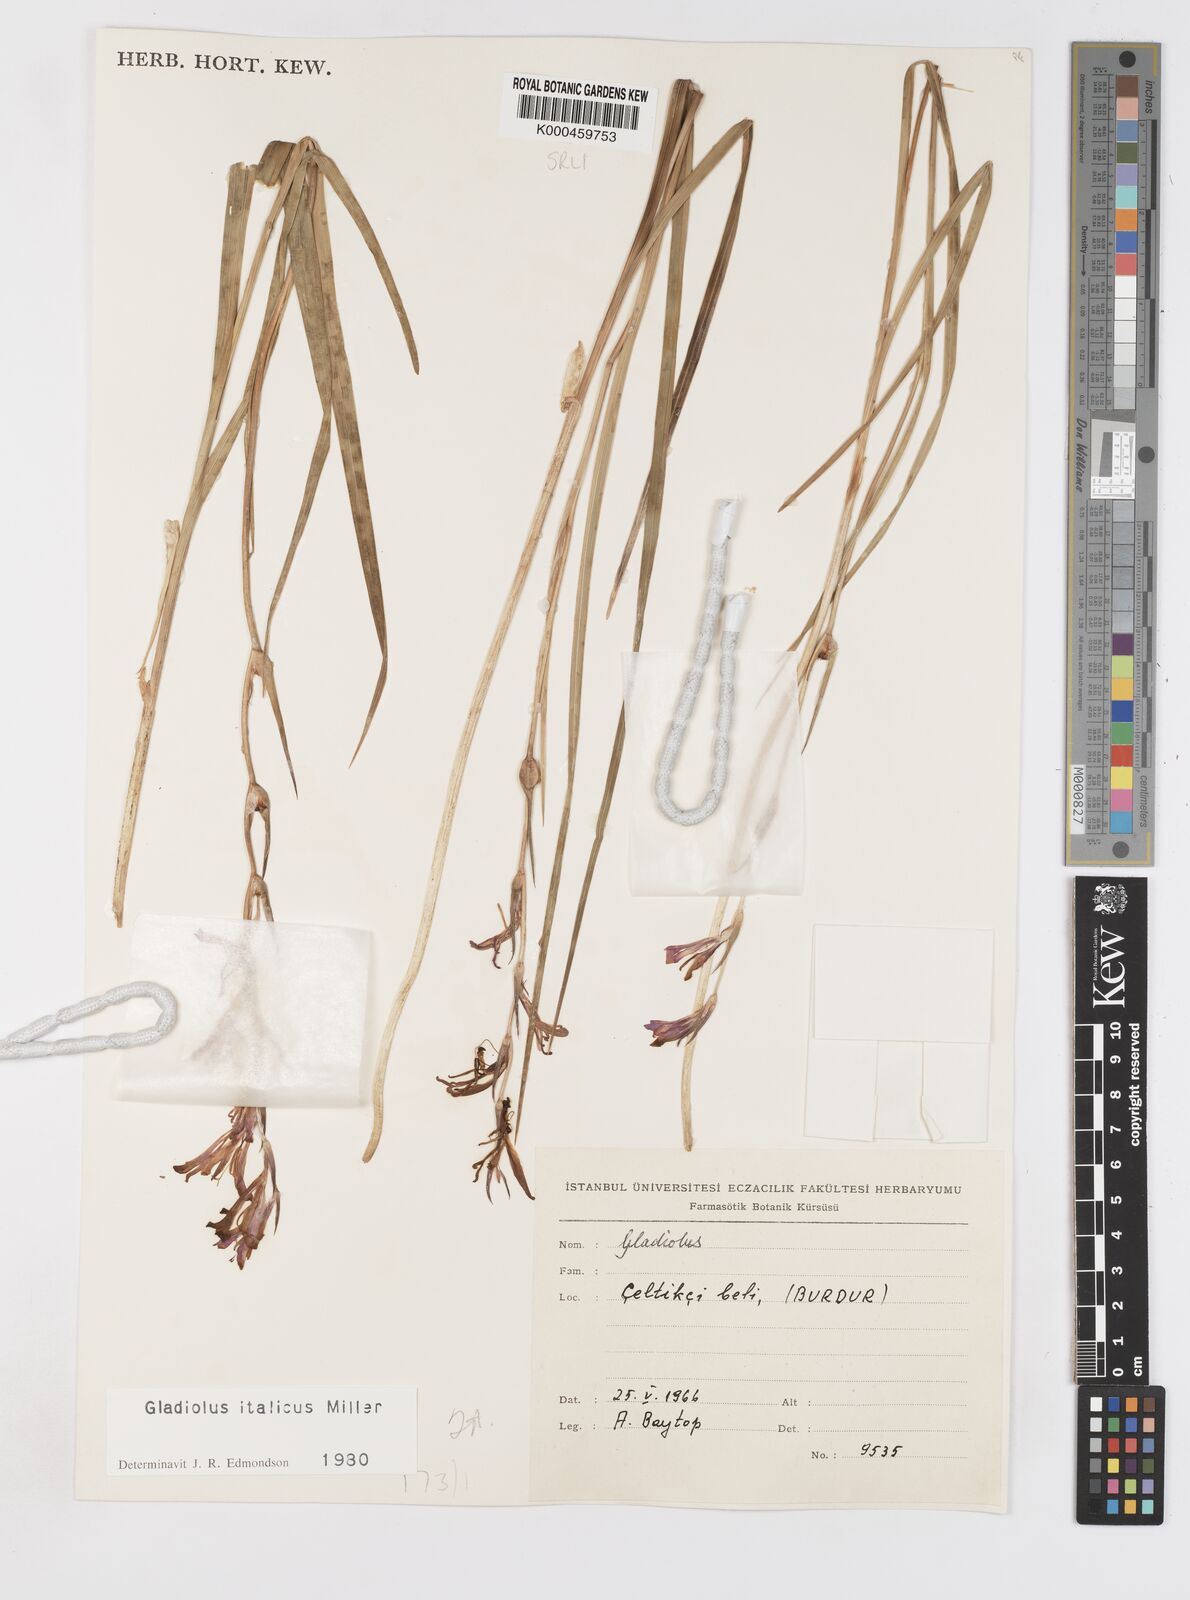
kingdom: Plantae
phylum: Tracheophyta
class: Liliopsida
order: Asparagales
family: Iridaceae
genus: Gladiolus
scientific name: Gladiolus italicus
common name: Field gladiolus
